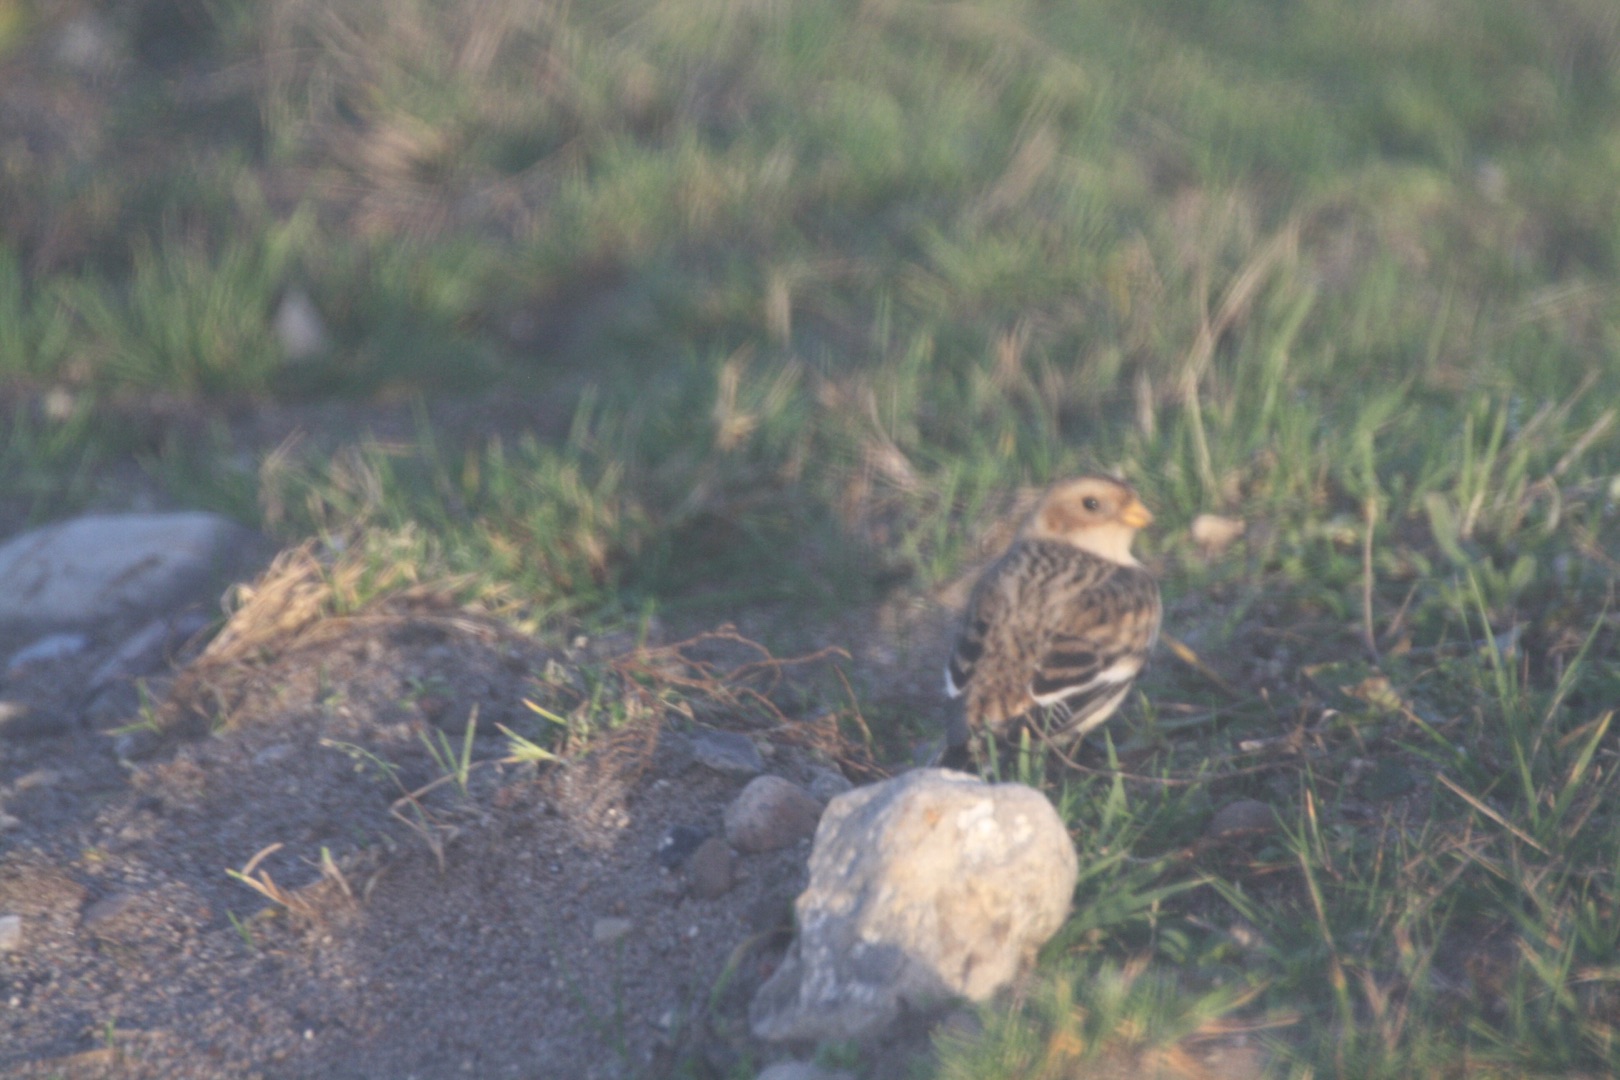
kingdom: Animalia
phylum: Chordata
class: Aves
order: Passeriformes
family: Calcariidae
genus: Plectrophenax
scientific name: Plectrophenax nivalis
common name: Snespurv
